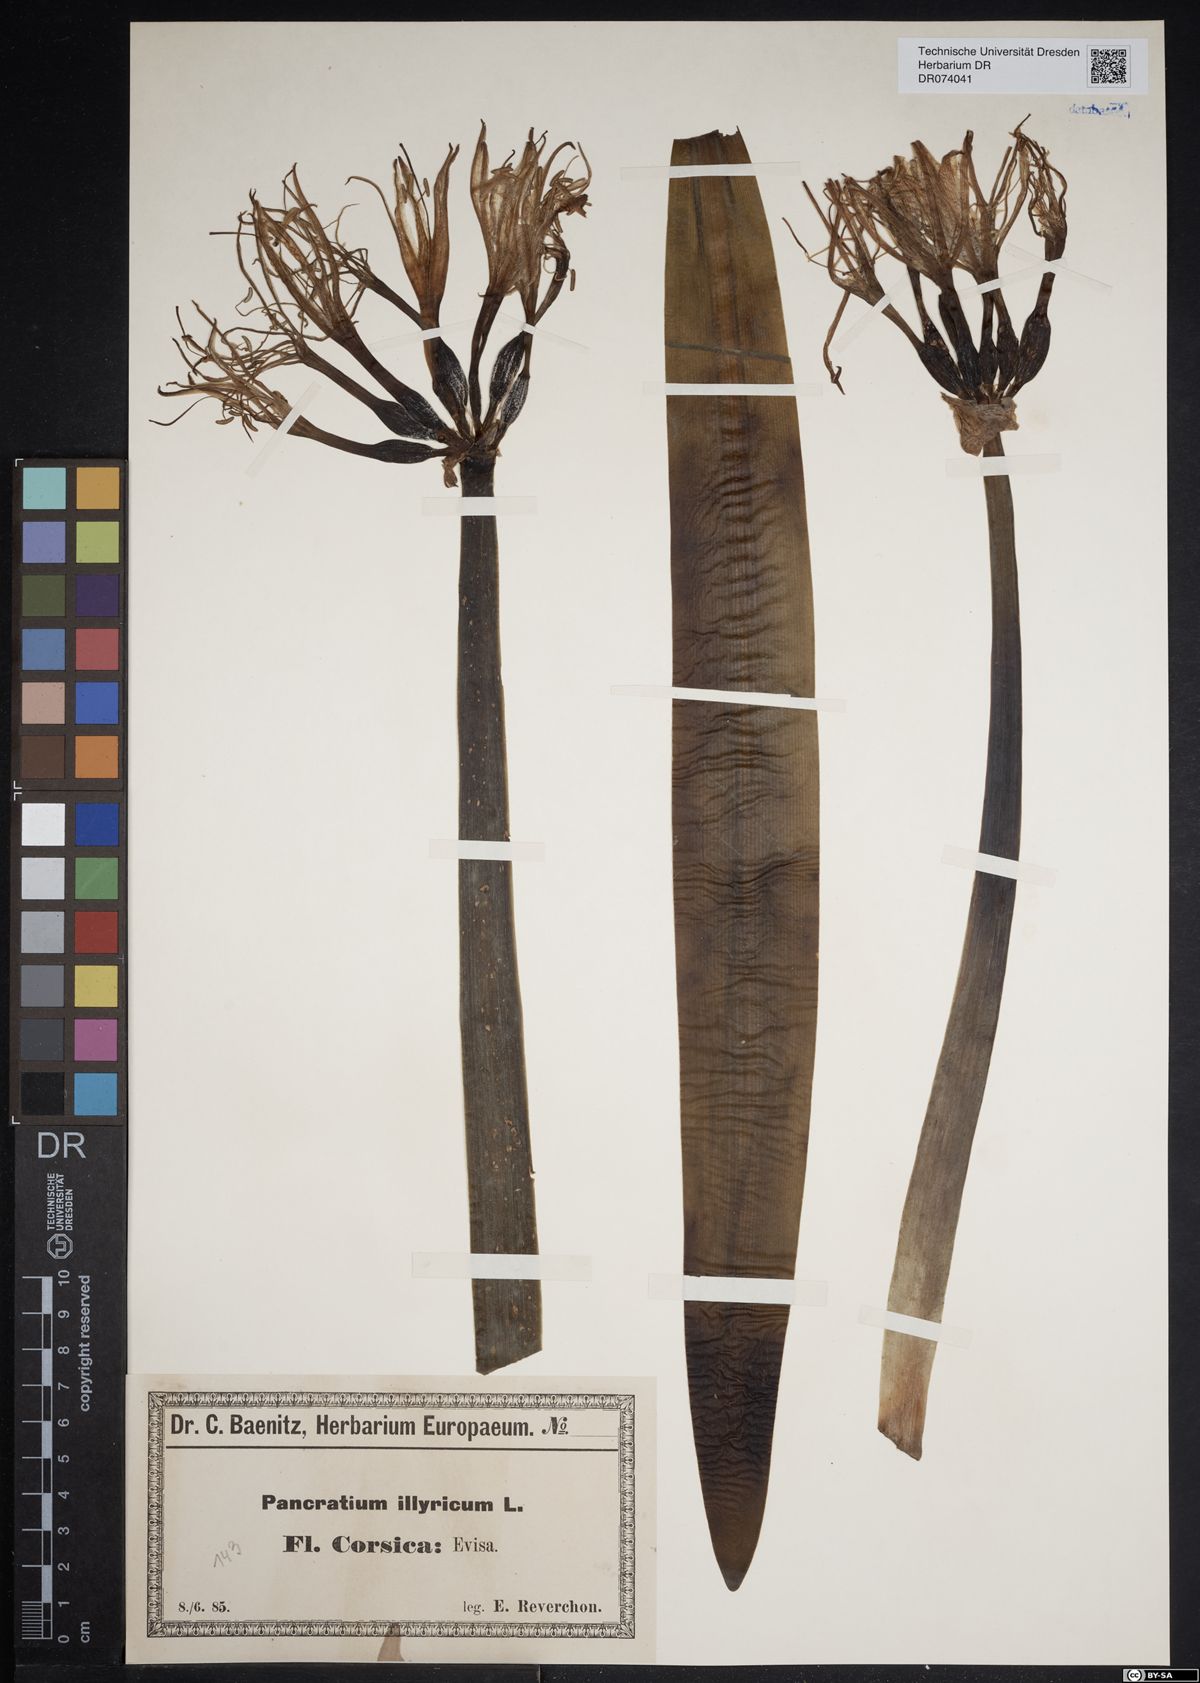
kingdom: Plantae
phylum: Tracheophyta
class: Liliopsida
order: Asparagales
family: Amaryllidaceae
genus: Pancratium
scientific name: Pancratium illyricum
